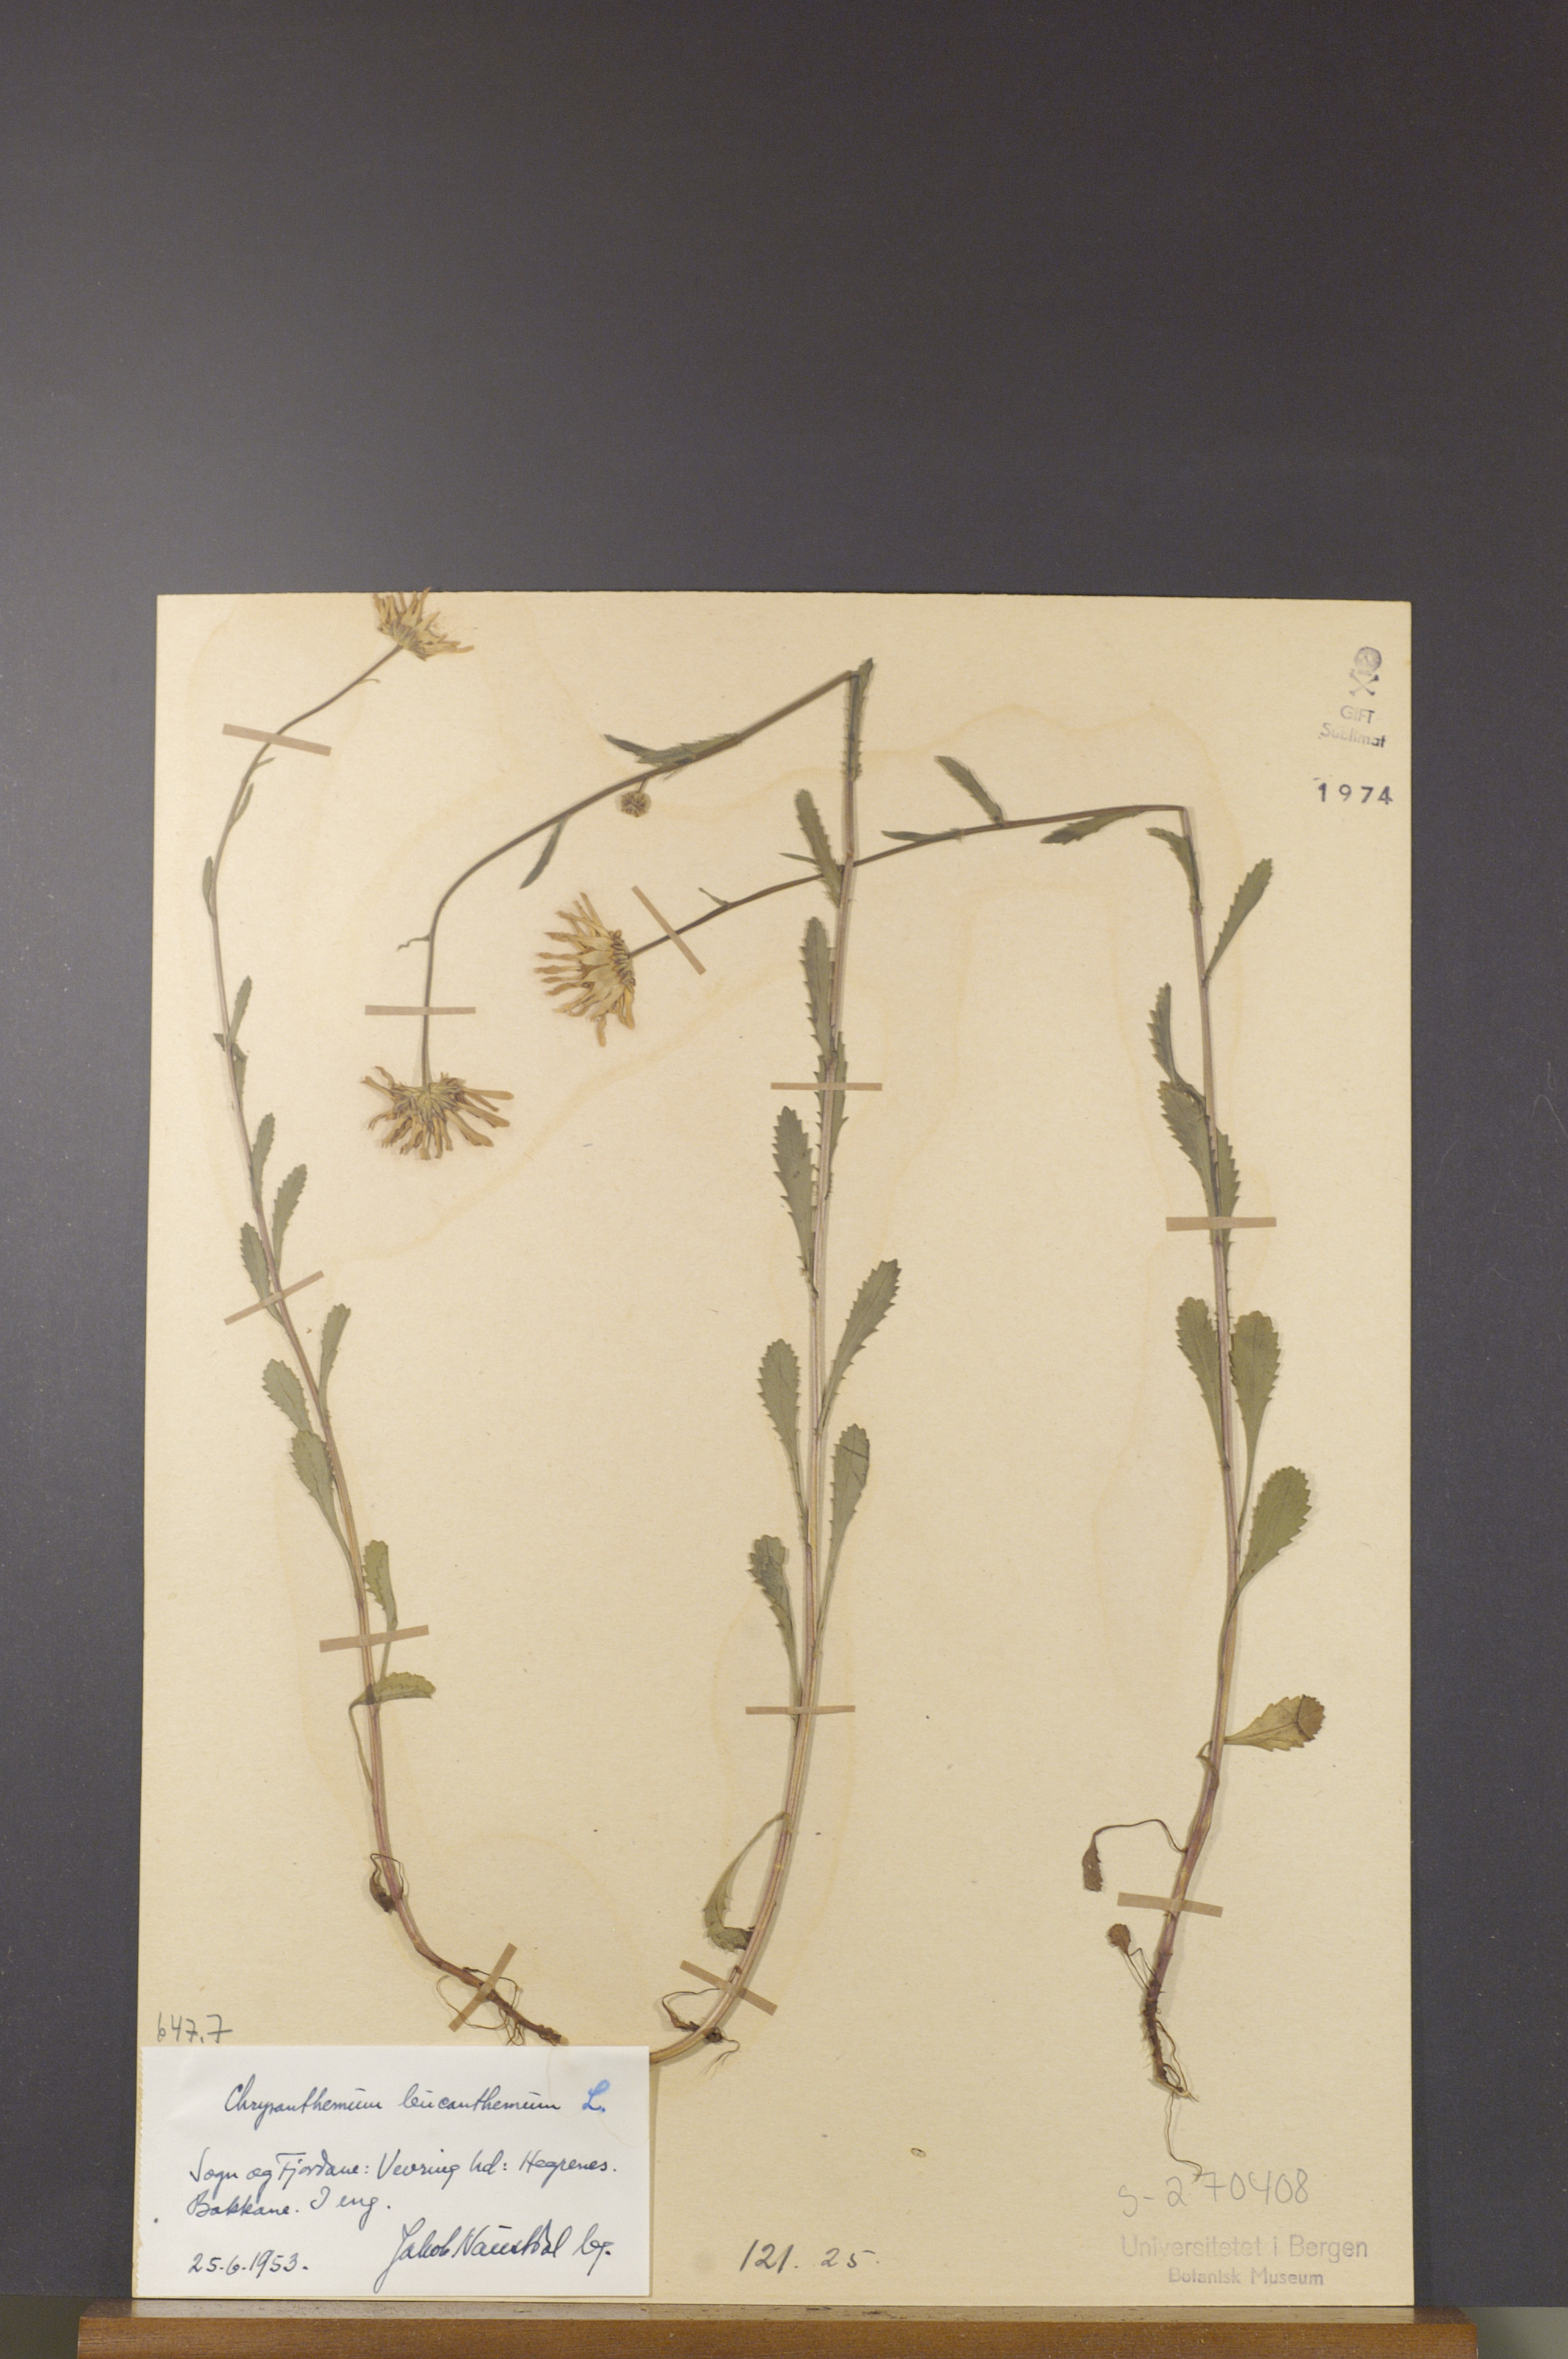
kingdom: Plantae
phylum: Tracheophyta
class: Magnoliopsida
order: Asterales
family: Asteraceae
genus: Leucanthemum
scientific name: Leucanthemum vulgare
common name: Oxeye daisy
